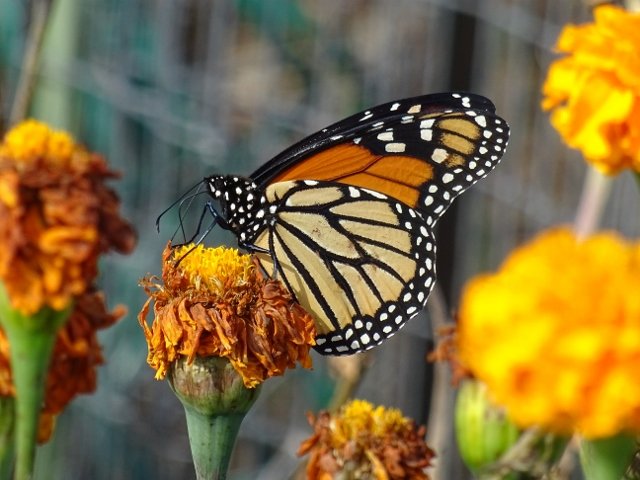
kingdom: Animalia
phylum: Arthropoda
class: Insecta
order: Lepidoptera
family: Nymphalidae
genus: Danaus
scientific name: Danaus plexippus
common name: Monarch
